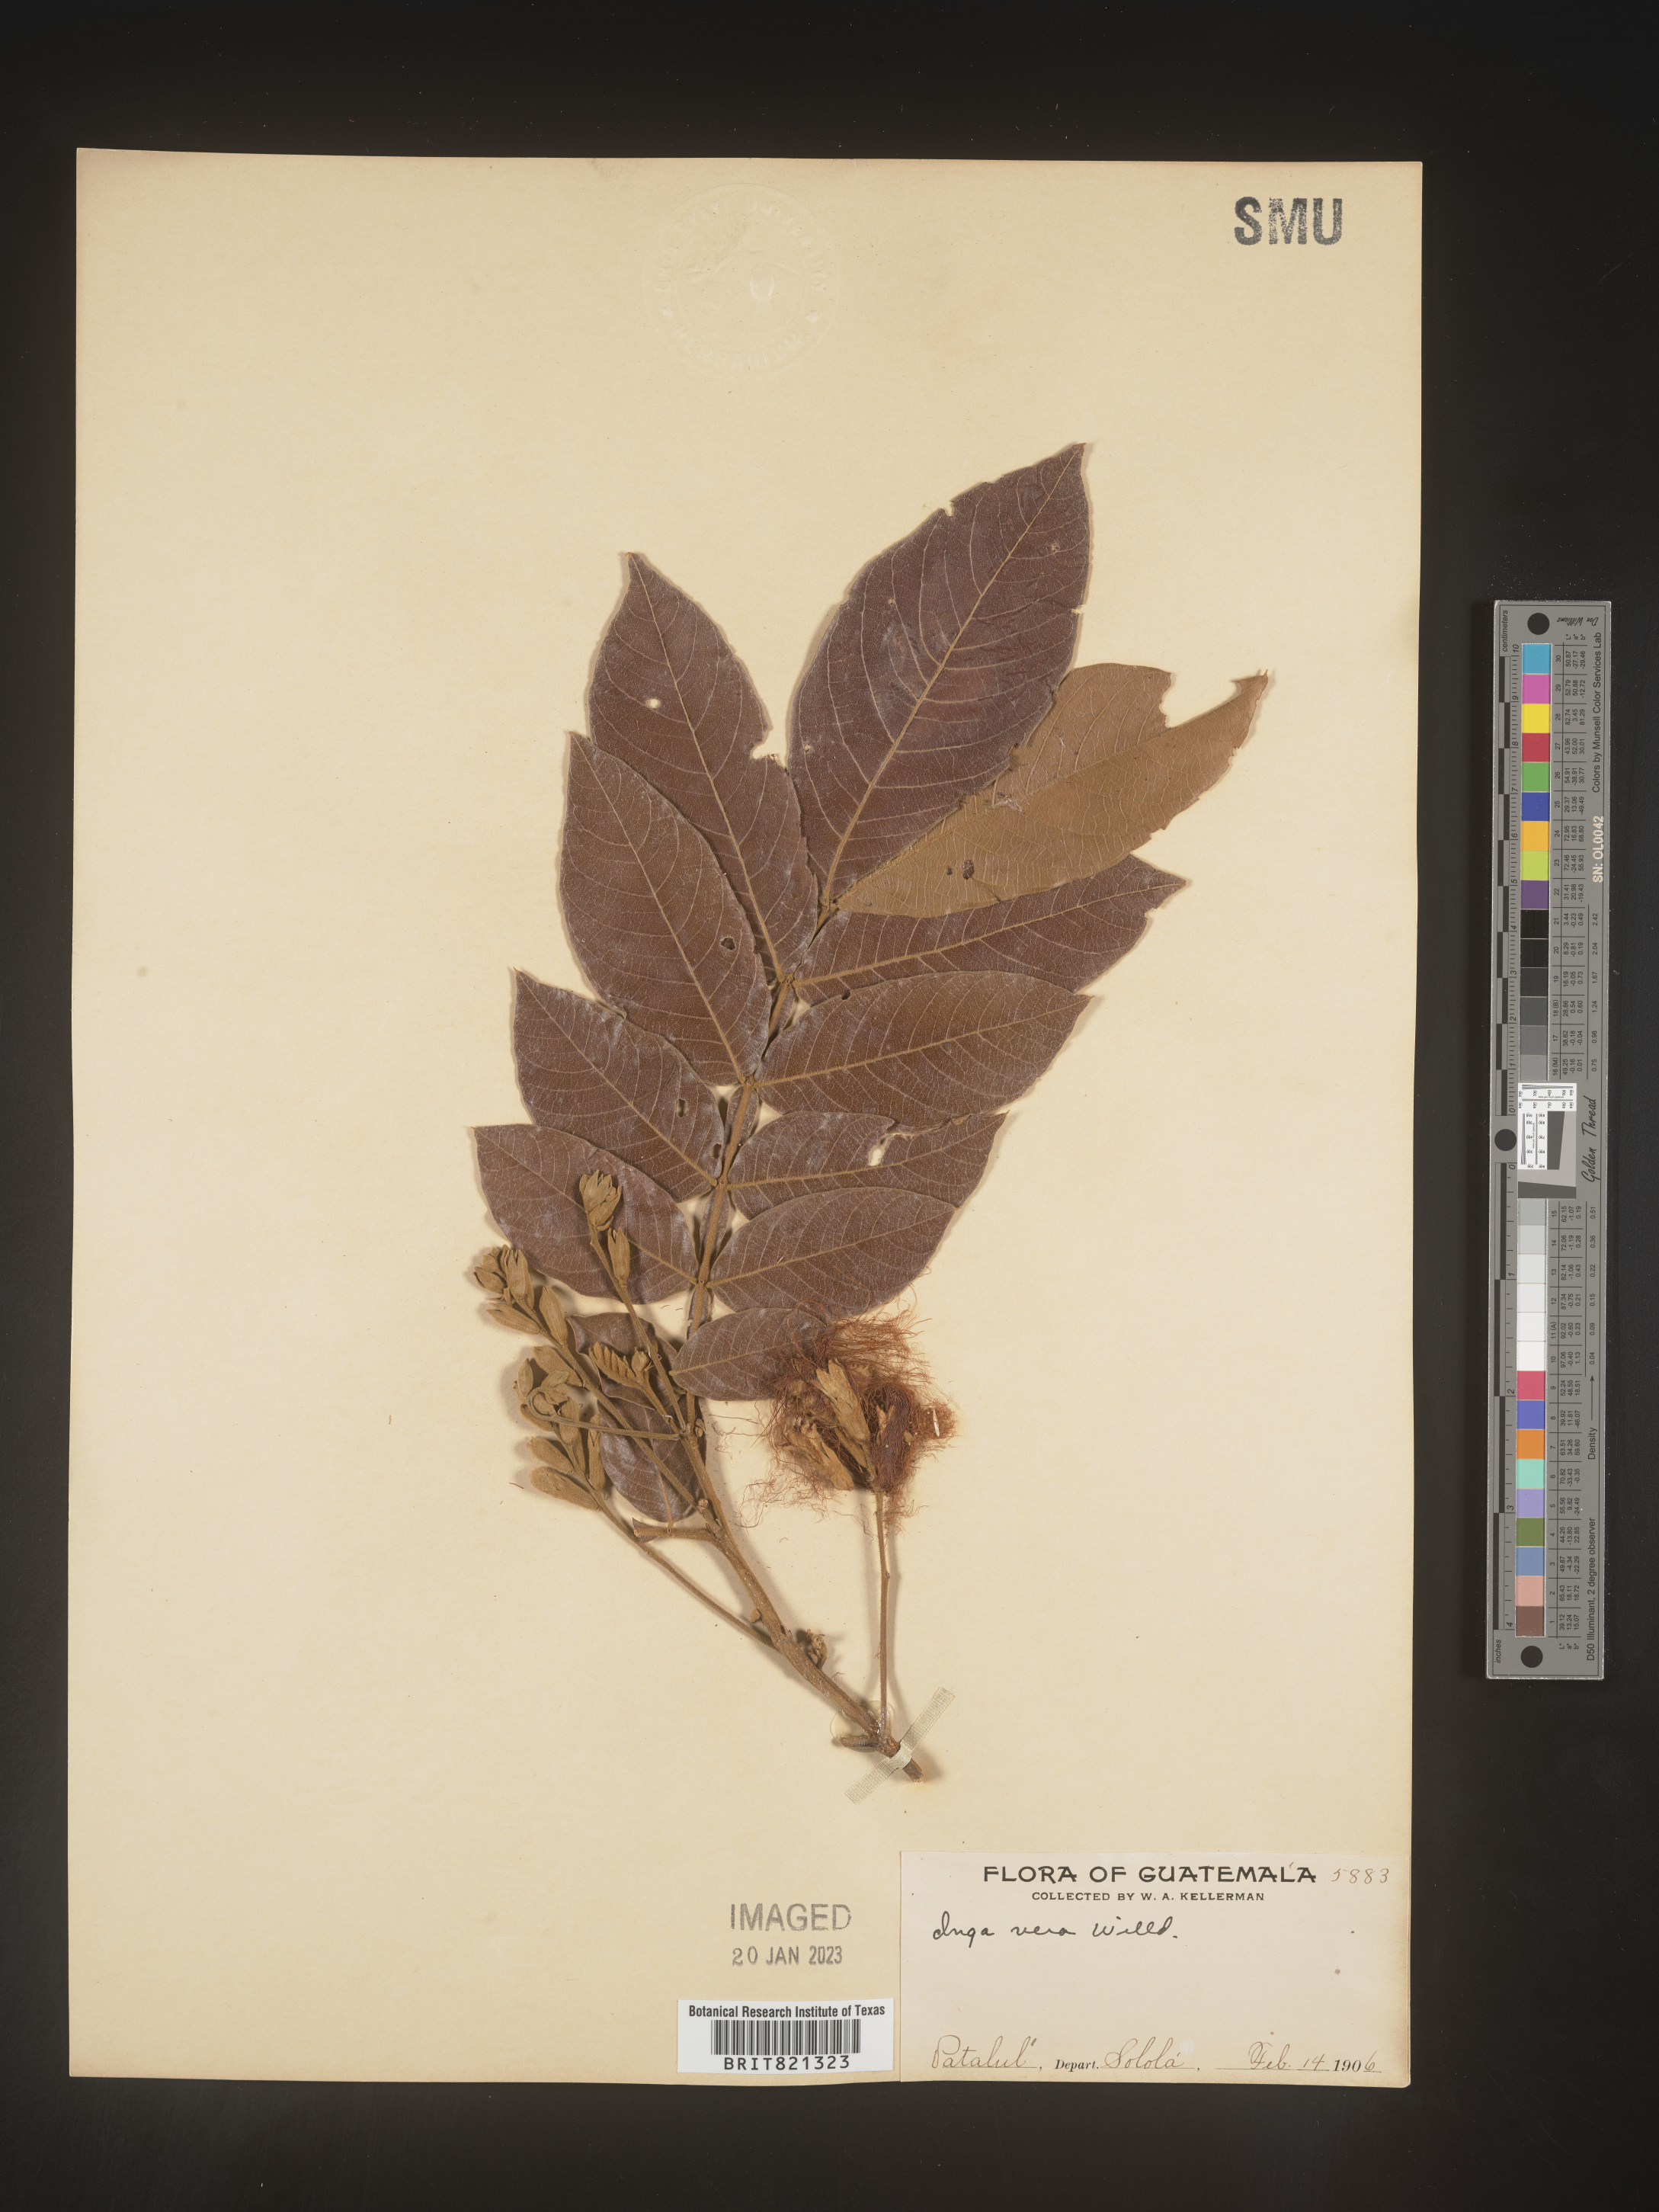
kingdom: Plantae
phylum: Tracheophyta
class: Magnoliopsida
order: Fabales
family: Fabaceae
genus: Inga
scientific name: Inga
